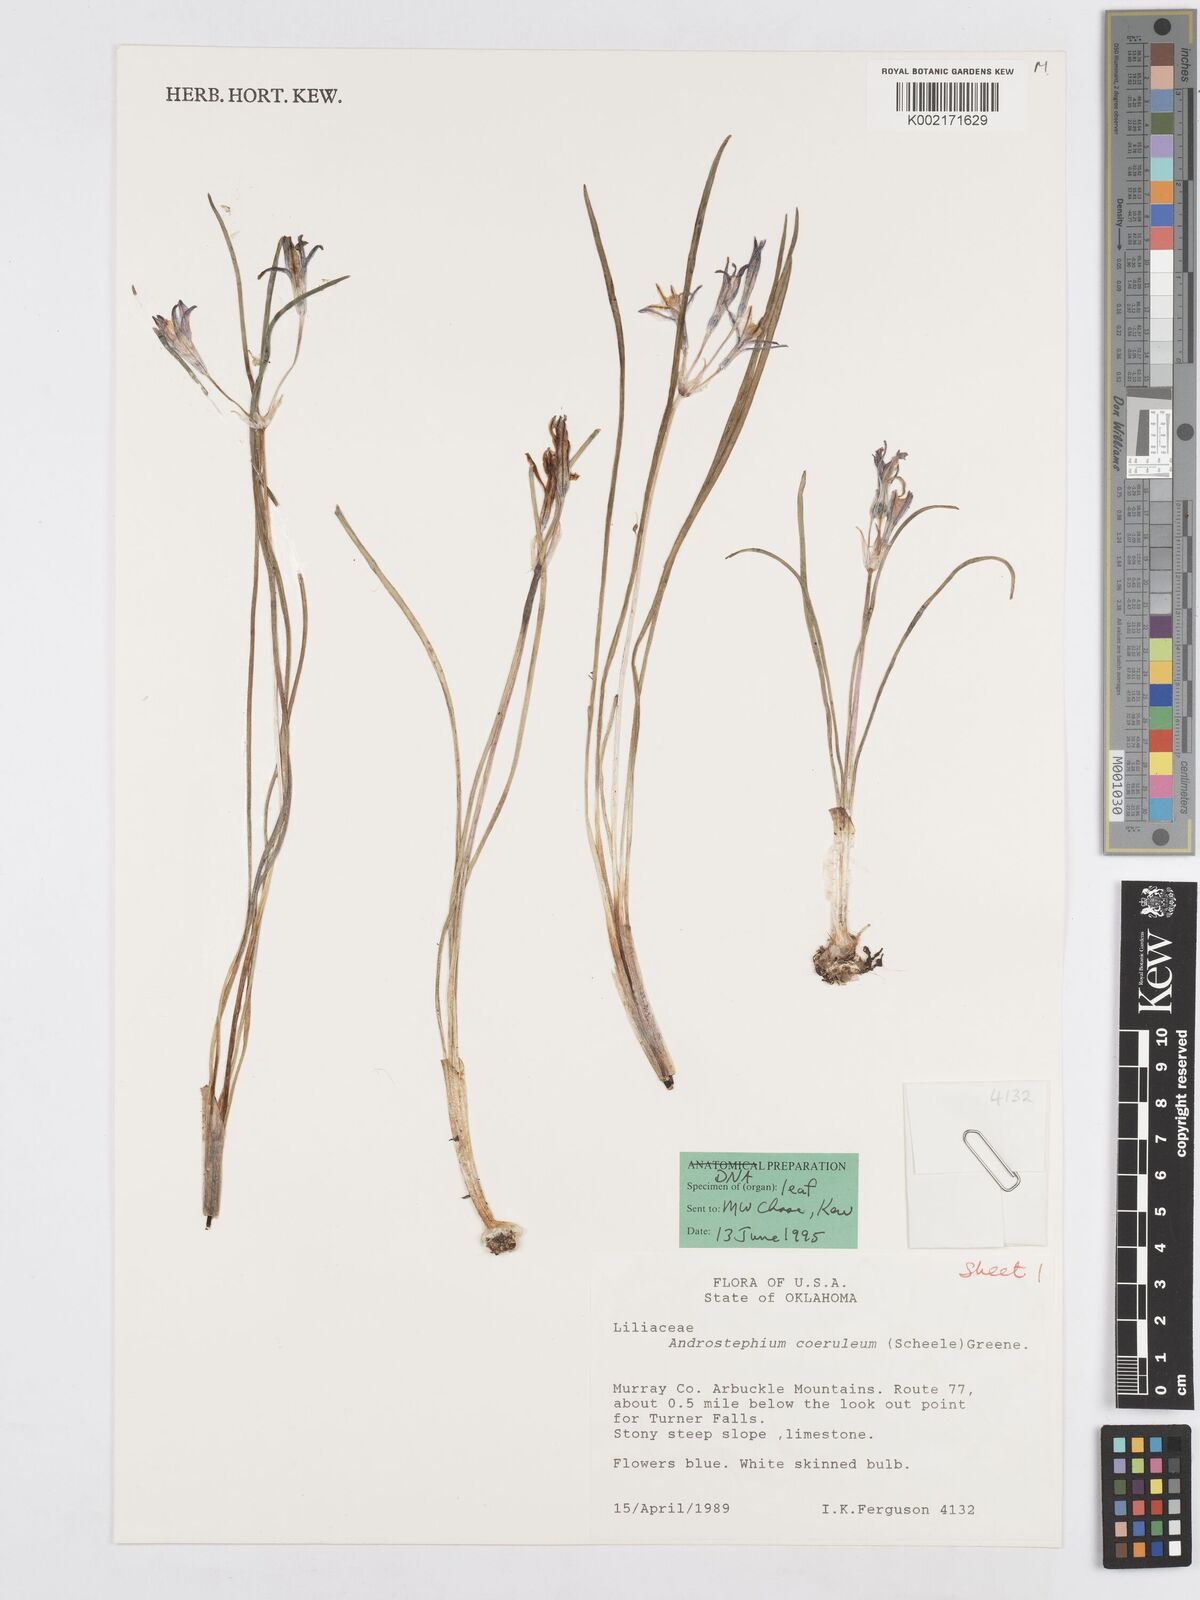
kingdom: Plantae
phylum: Tracheophyta
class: Liliopsida
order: Asparagales
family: Asparagaceae
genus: Androstephium
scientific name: Androstephium coeruleum
